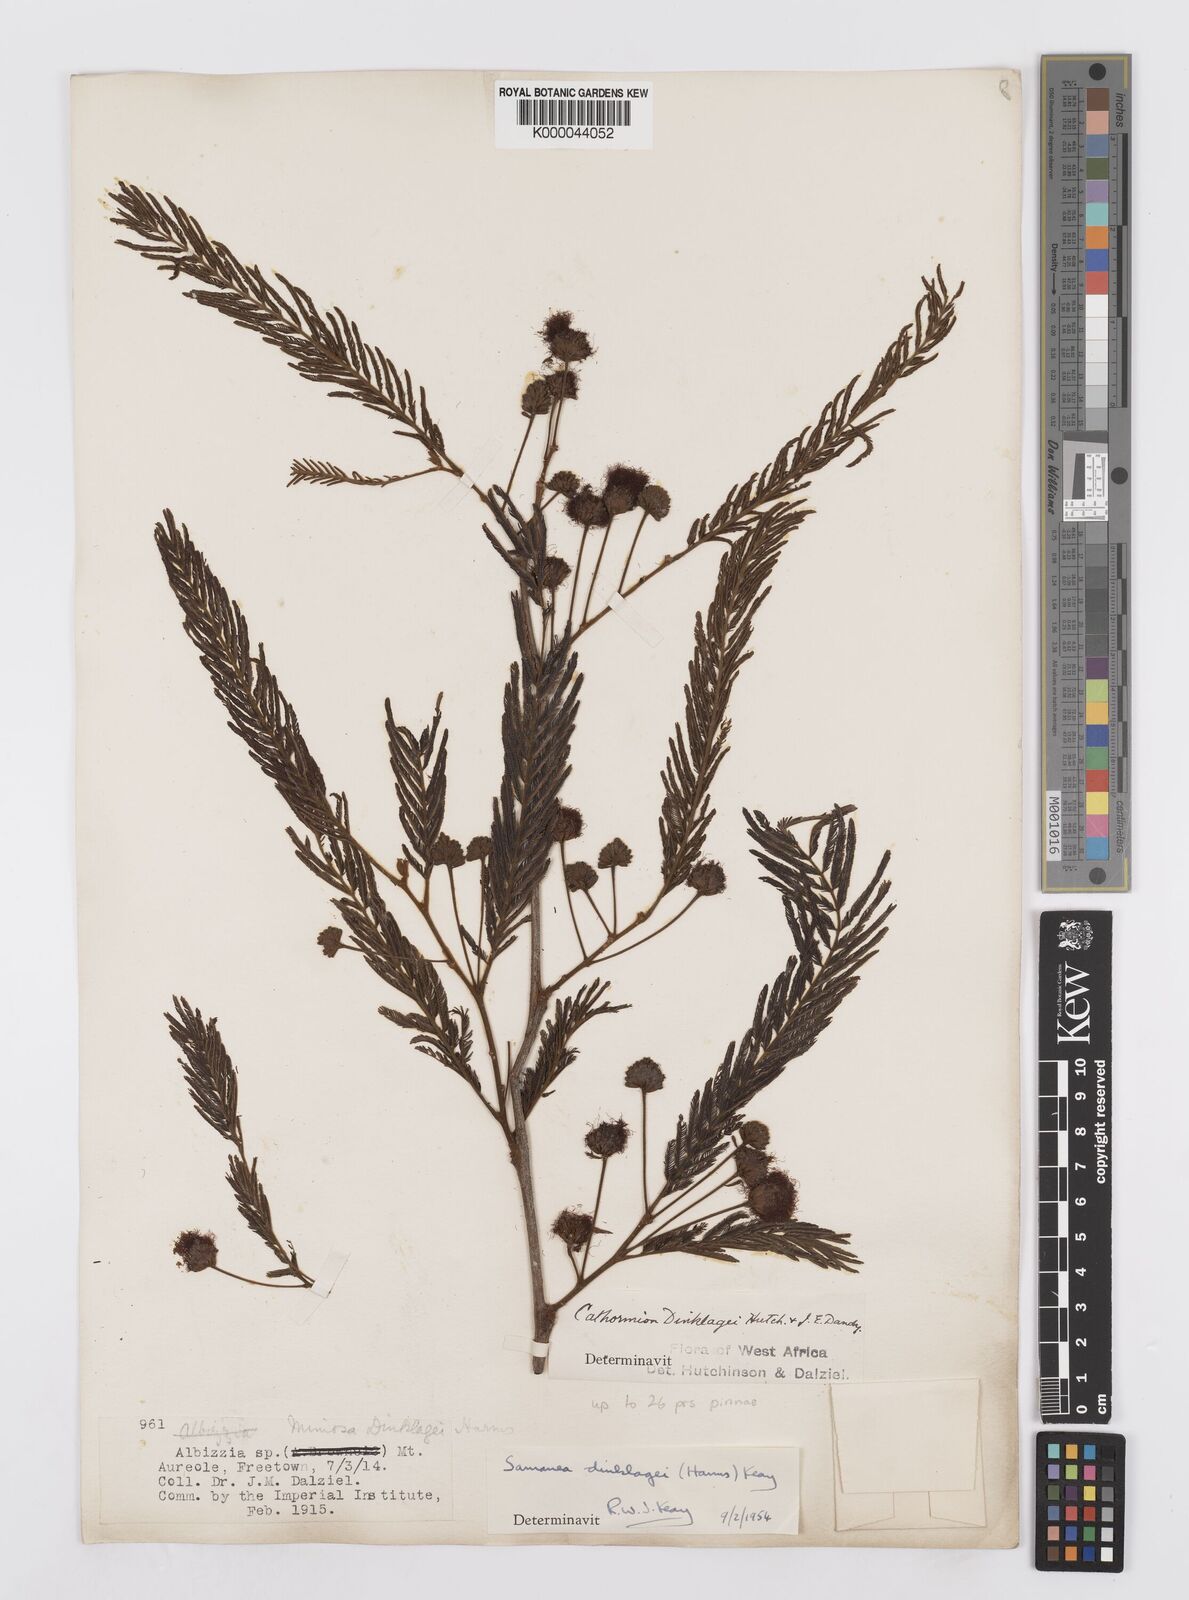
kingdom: Plantae
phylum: Tracheophyta
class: Magnoliopsida
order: Fabales
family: Fabaceae
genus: Albizia
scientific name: Albizia dinklagei
